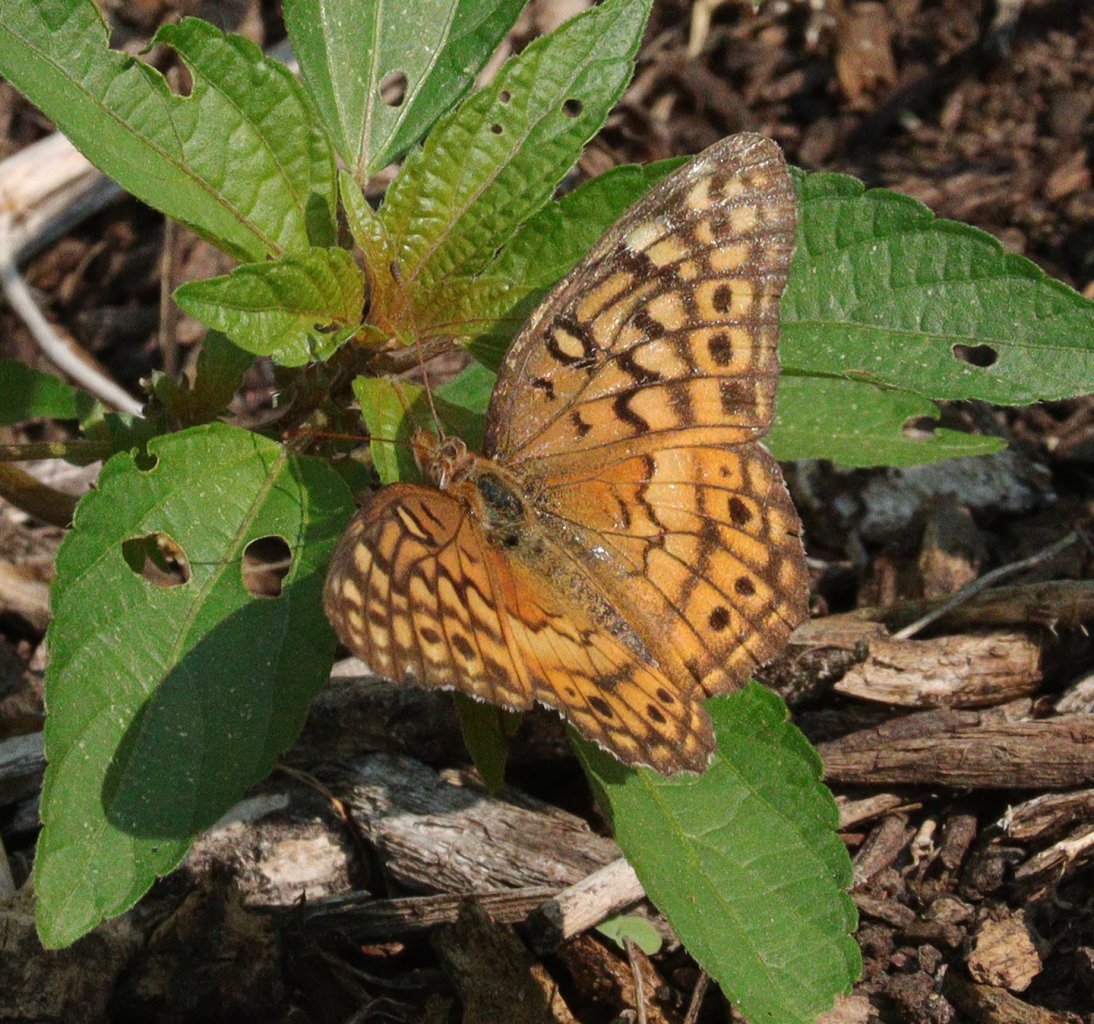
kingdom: Animalia
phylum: Arthropoda
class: Insecta
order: Lepidoptera
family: Nymphalidae
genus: Euptoieta
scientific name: Euptoieta claudia
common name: Variegated Fritillary
